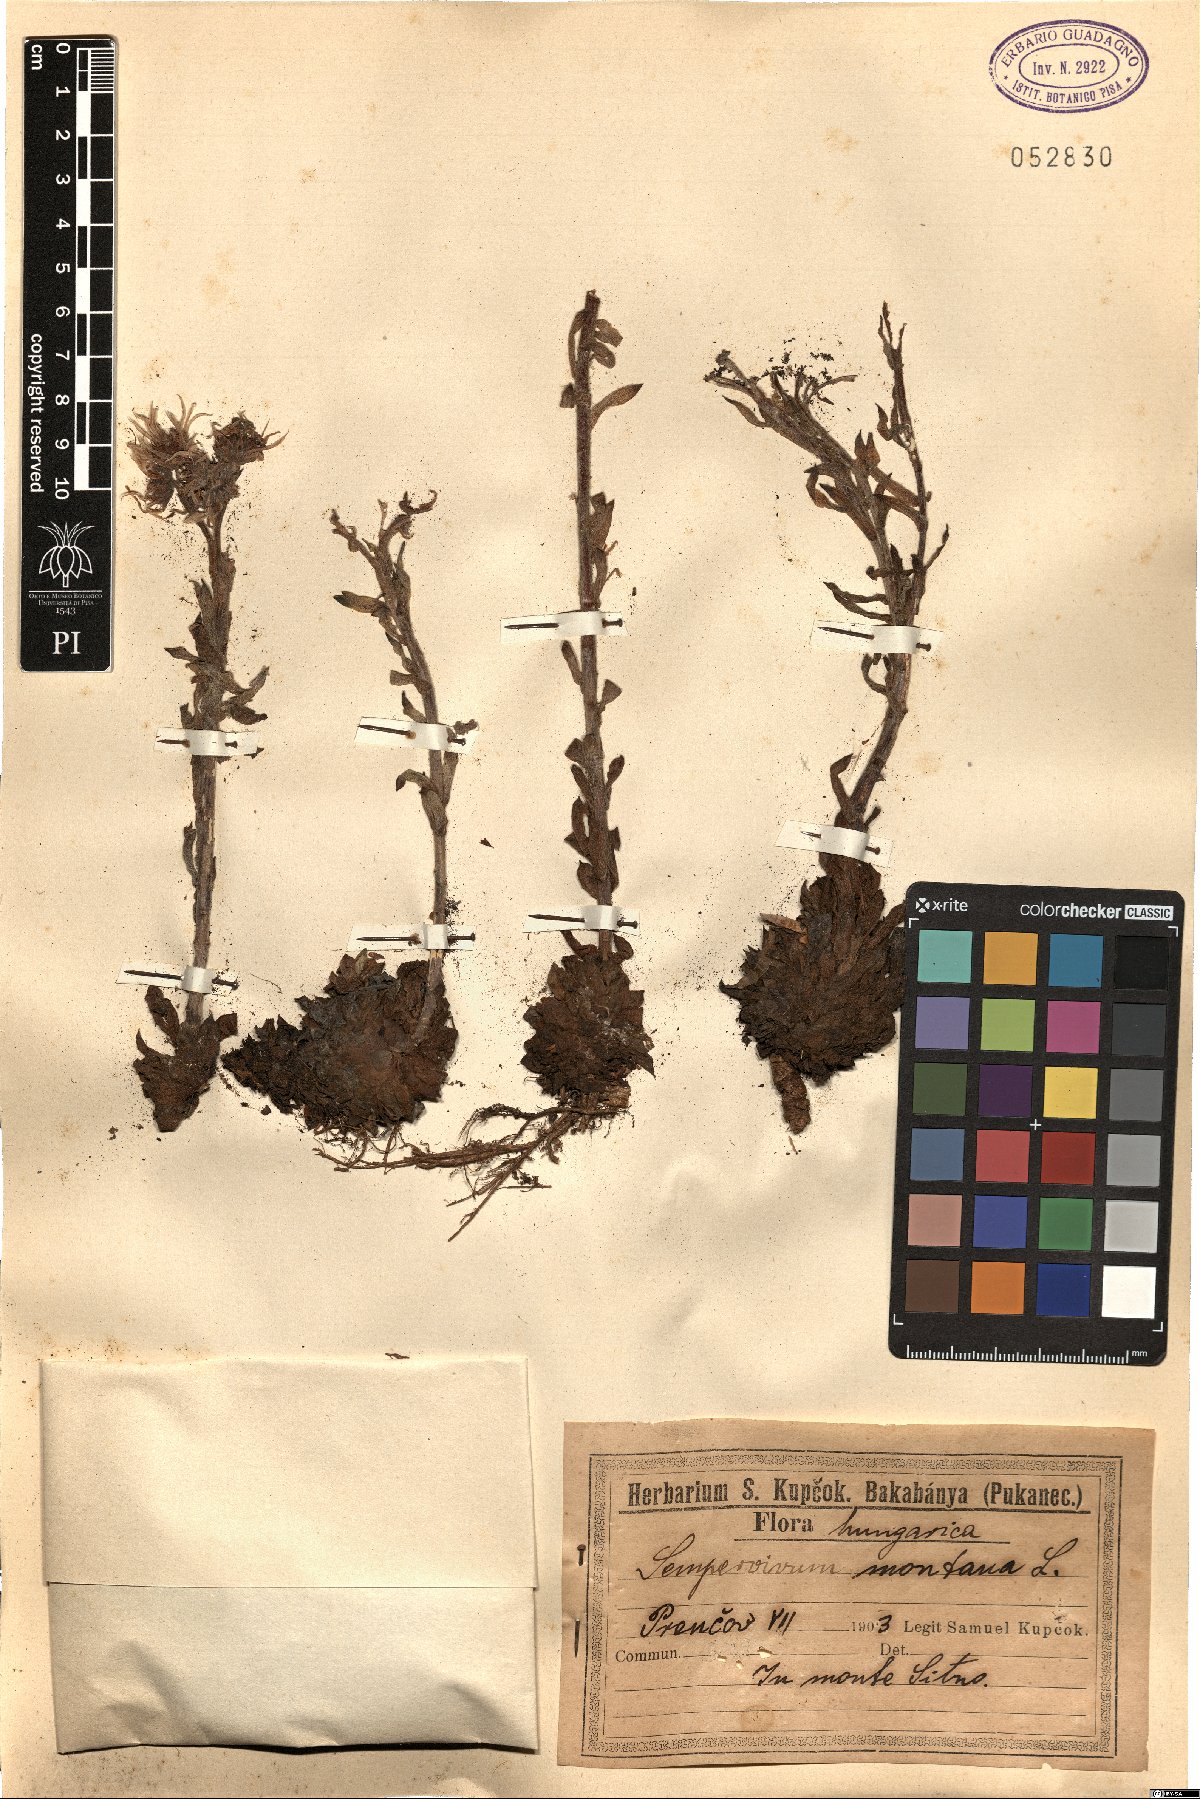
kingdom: Plantae
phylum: Tracheophyta
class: Magnoliopsida
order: Saxifragales
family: Crassulaceae
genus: Sempervivum
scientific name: Sempervivum montanum
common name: Mountain house-leek
